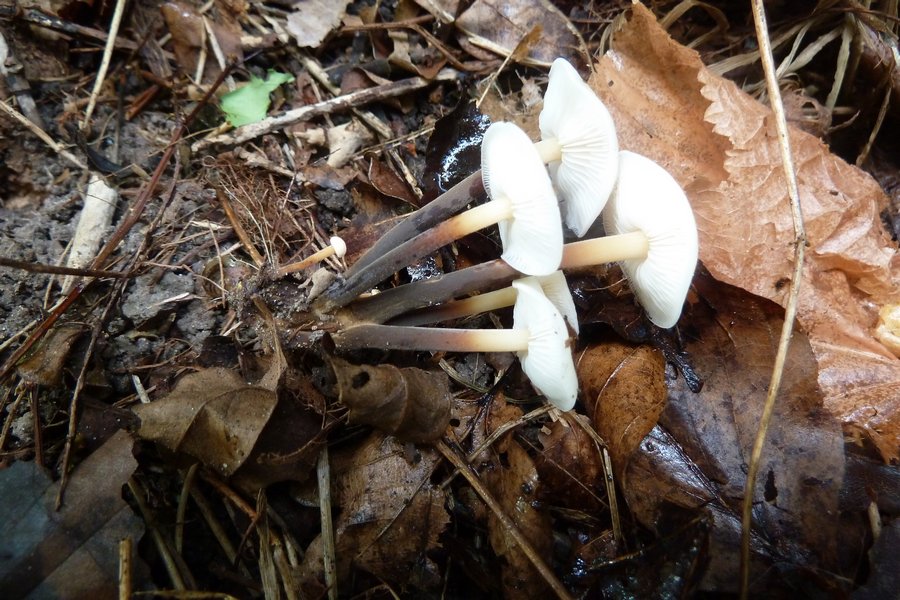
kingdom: Fungi
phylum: Basidiomycota
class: Agaricomycetes
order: Agaricales
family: Physalacriaceae
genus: Flammulina
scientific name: Flammulina fennae
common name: rodslående fløjlsfod
